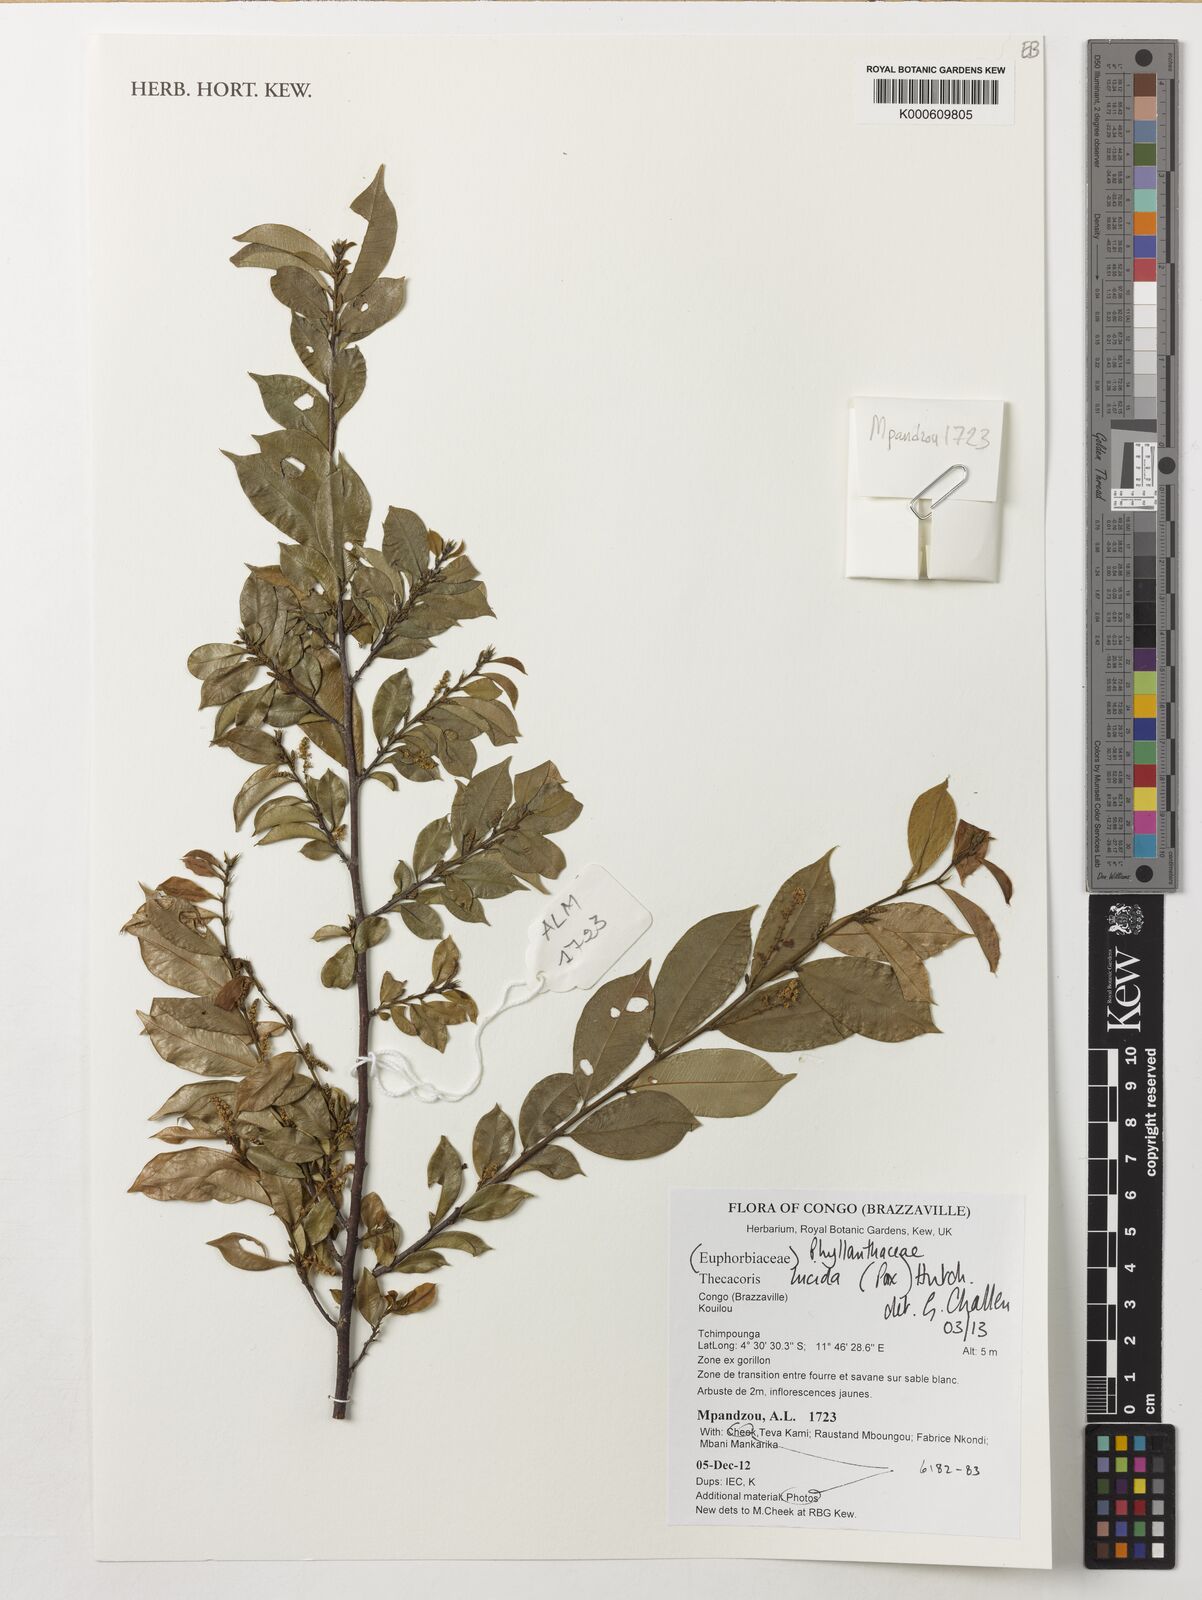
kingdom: Plantae
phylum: Tracheophyta
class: Magnoliopsida
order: Malpighiales
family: Phyllanthaceae
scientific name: Phyllanthaceae
